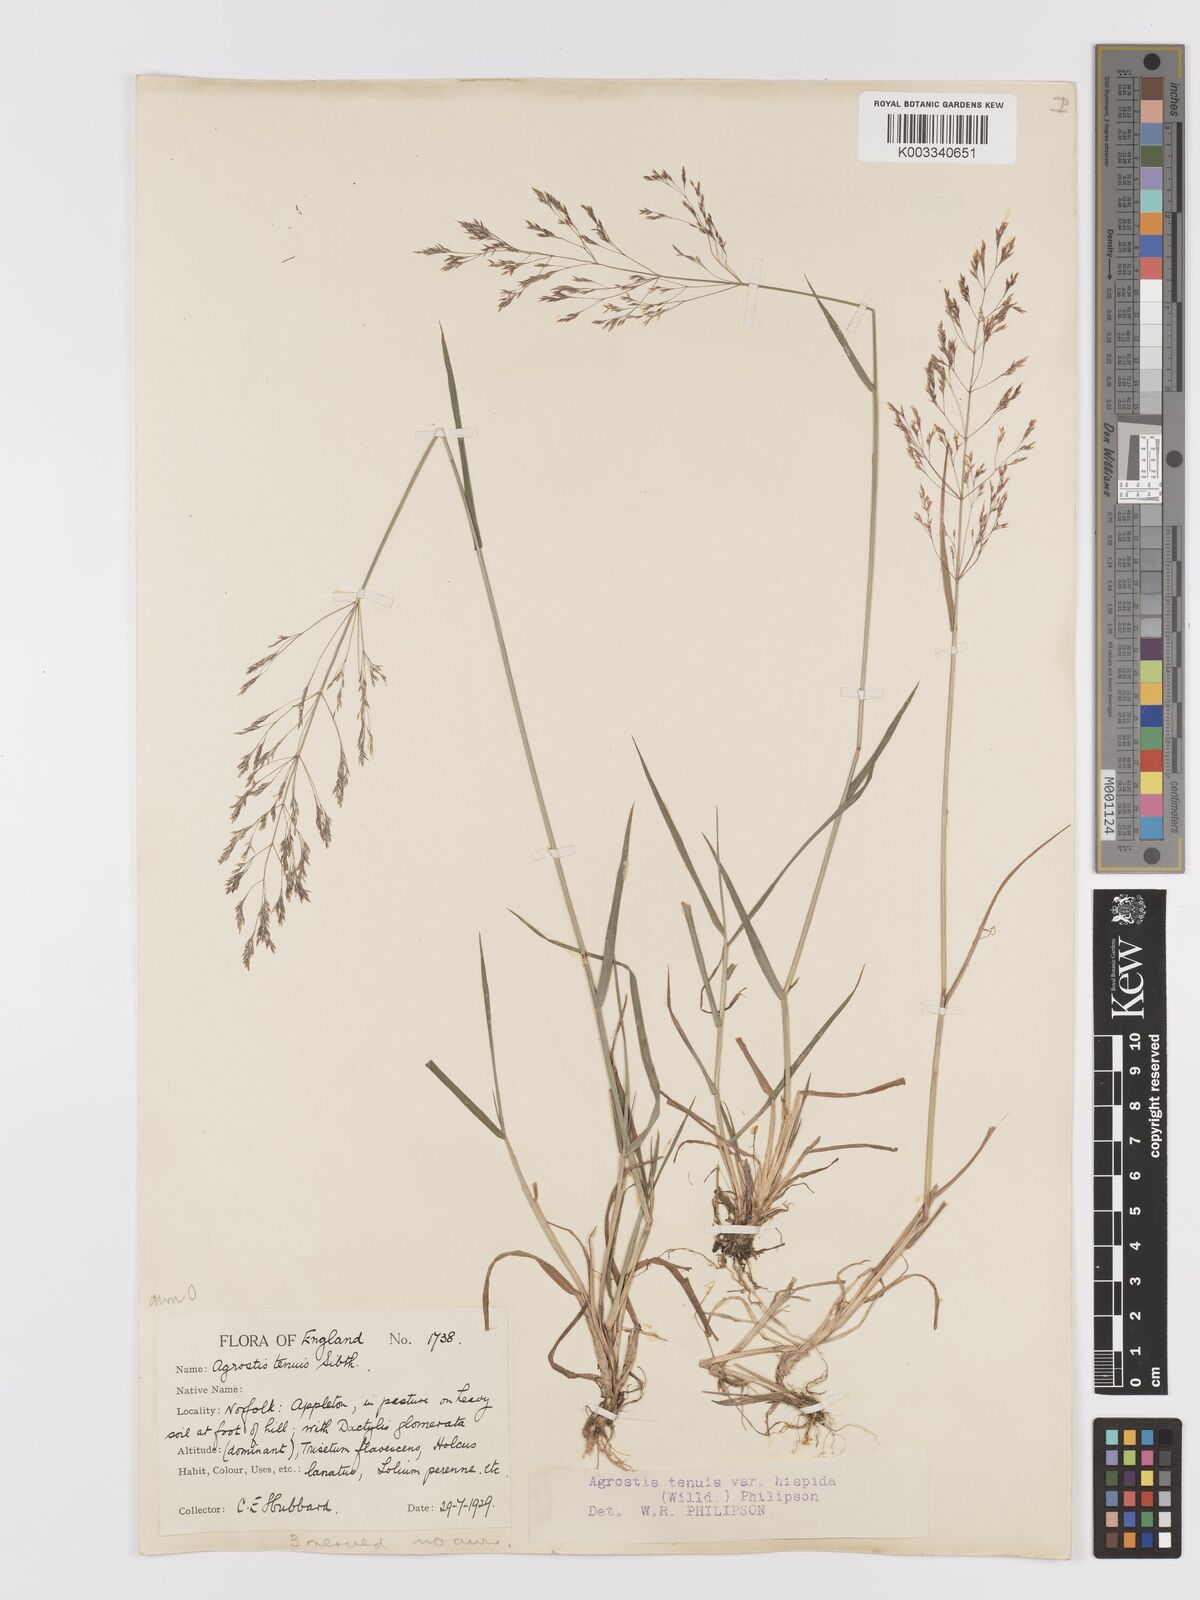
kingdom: Plantae
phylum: Tracheophyta
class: Liliopsida
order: Poales
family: Poaceae
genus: Agrostis
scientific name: Agrostis capillaris
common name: Colonial bentgrass
